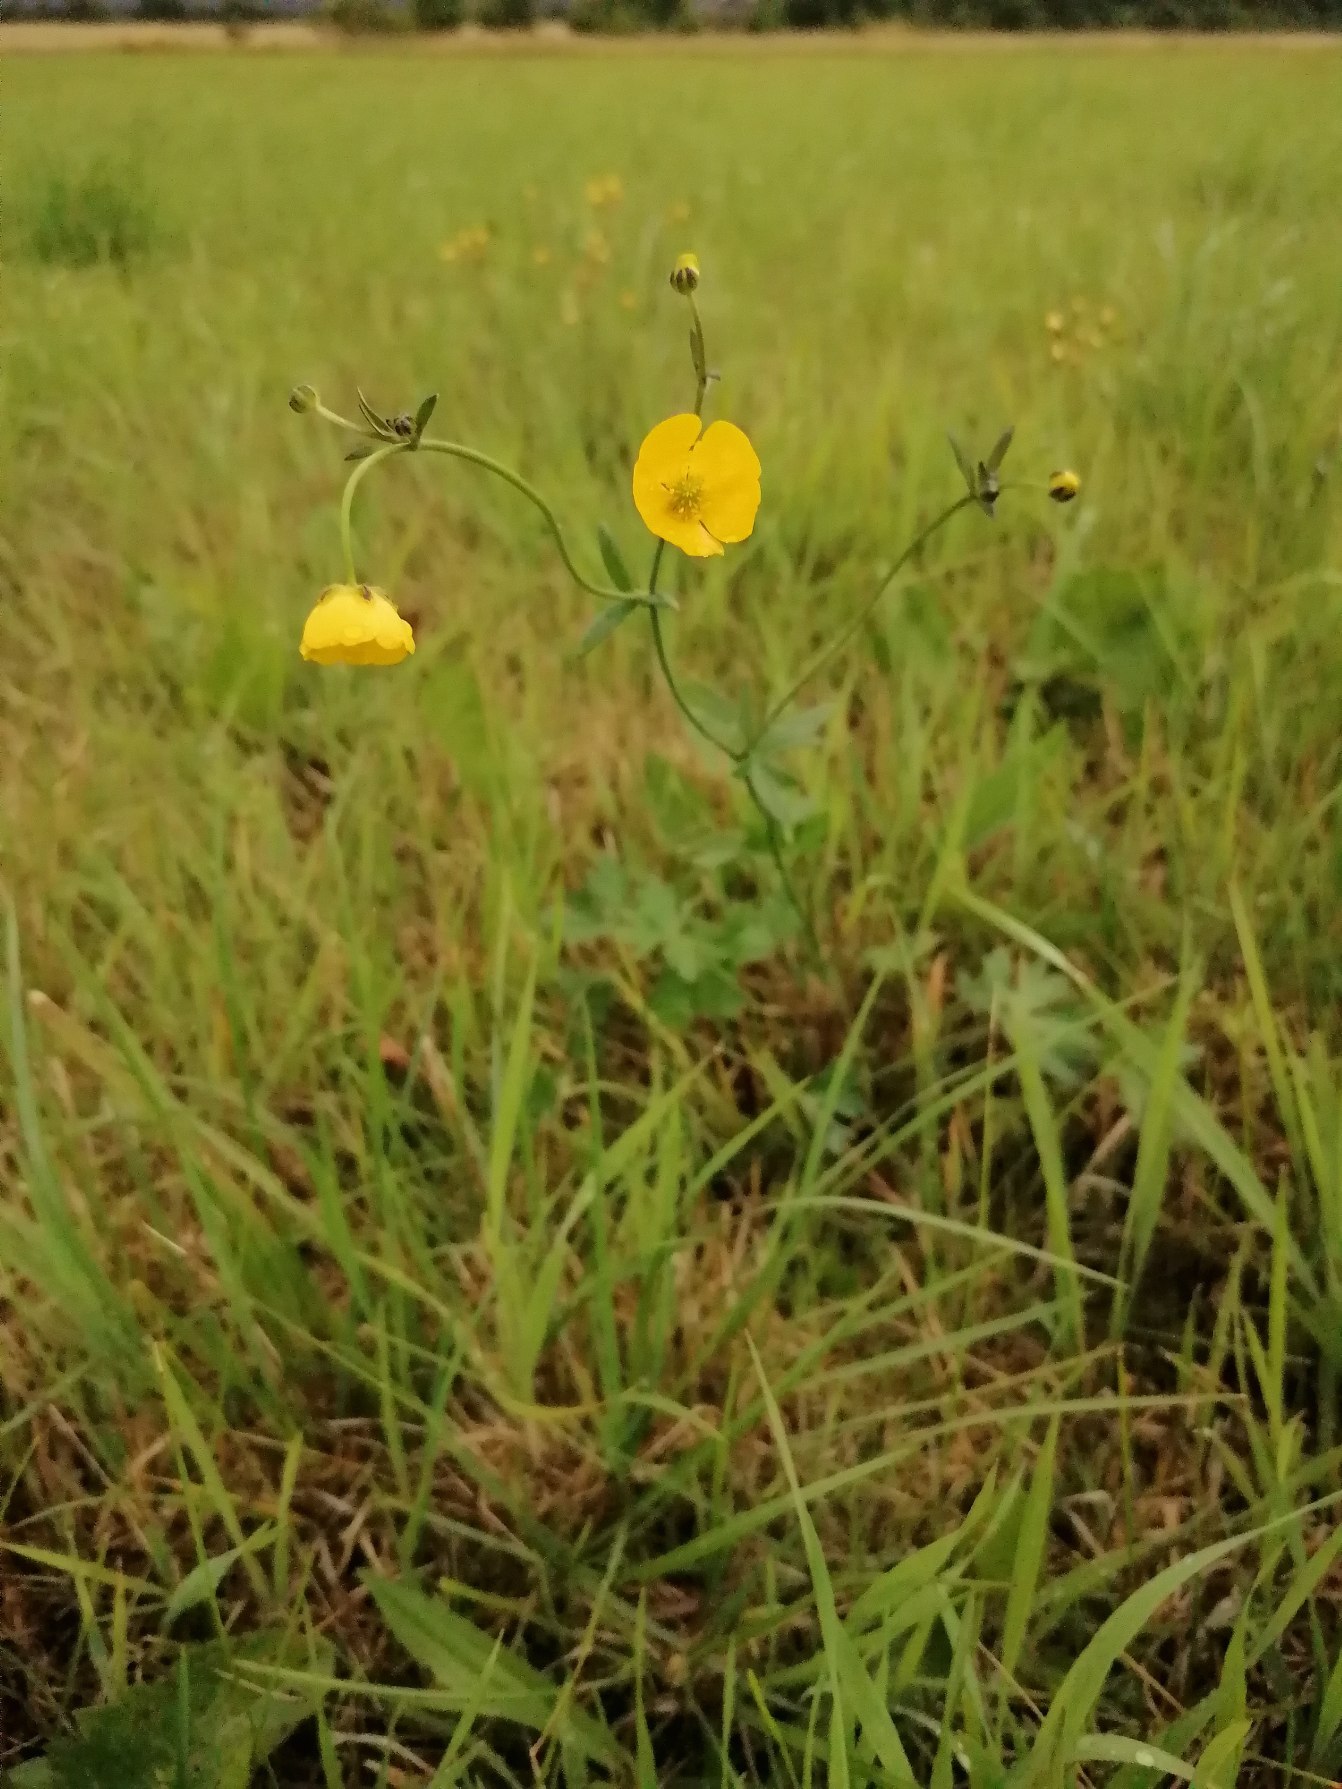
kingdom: Plantae
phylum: Tracheophyta
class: Magnoliopsida
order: Ranunculales
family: Ranunculaceae
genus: Ranunculus
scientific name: Ranunculus acris
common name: Bidende ranunkel
